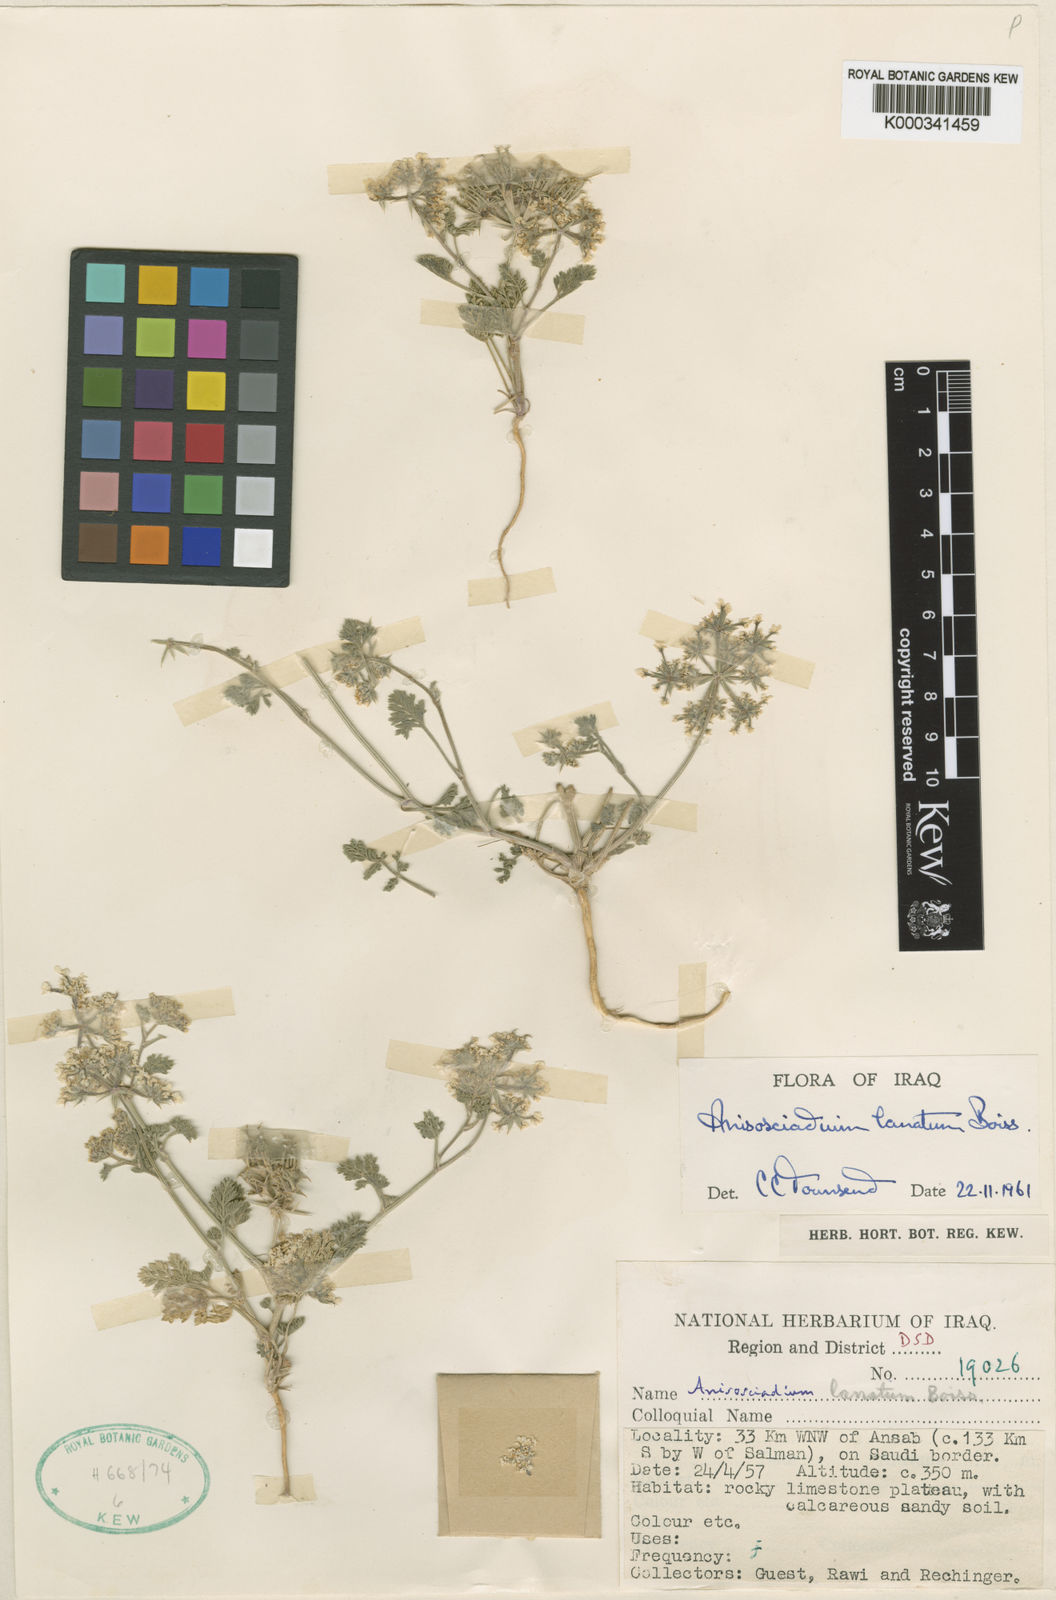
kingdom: Plantae
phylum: Tracheophyta
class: Magnoliopsida
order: Apiales
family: Apiaceae
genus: Anisosciadium
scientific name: Anisosciadium lanatum
